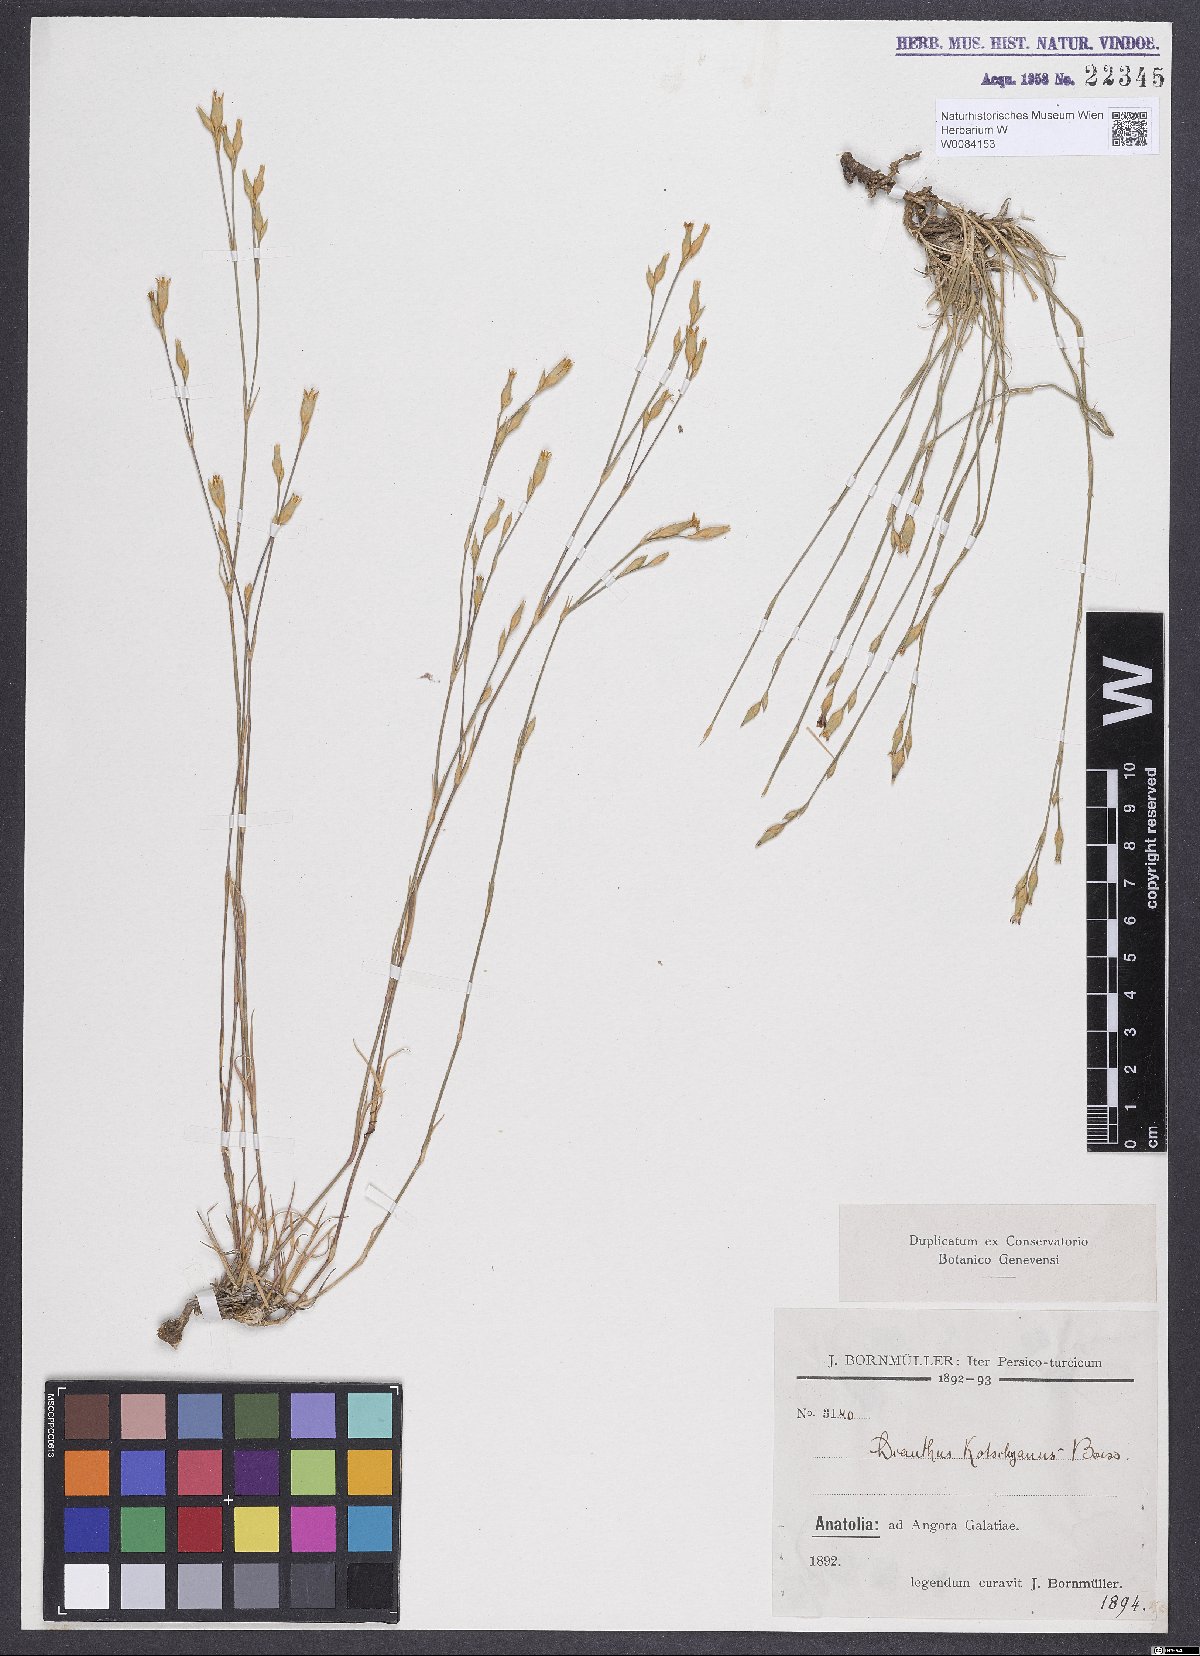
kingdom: Plantae
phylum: Tracheophyta
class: Magnoliopsida
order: Caryophyllales
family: Caryophyllaceae
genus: Dianthus
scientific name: Dianthus anatolicus
